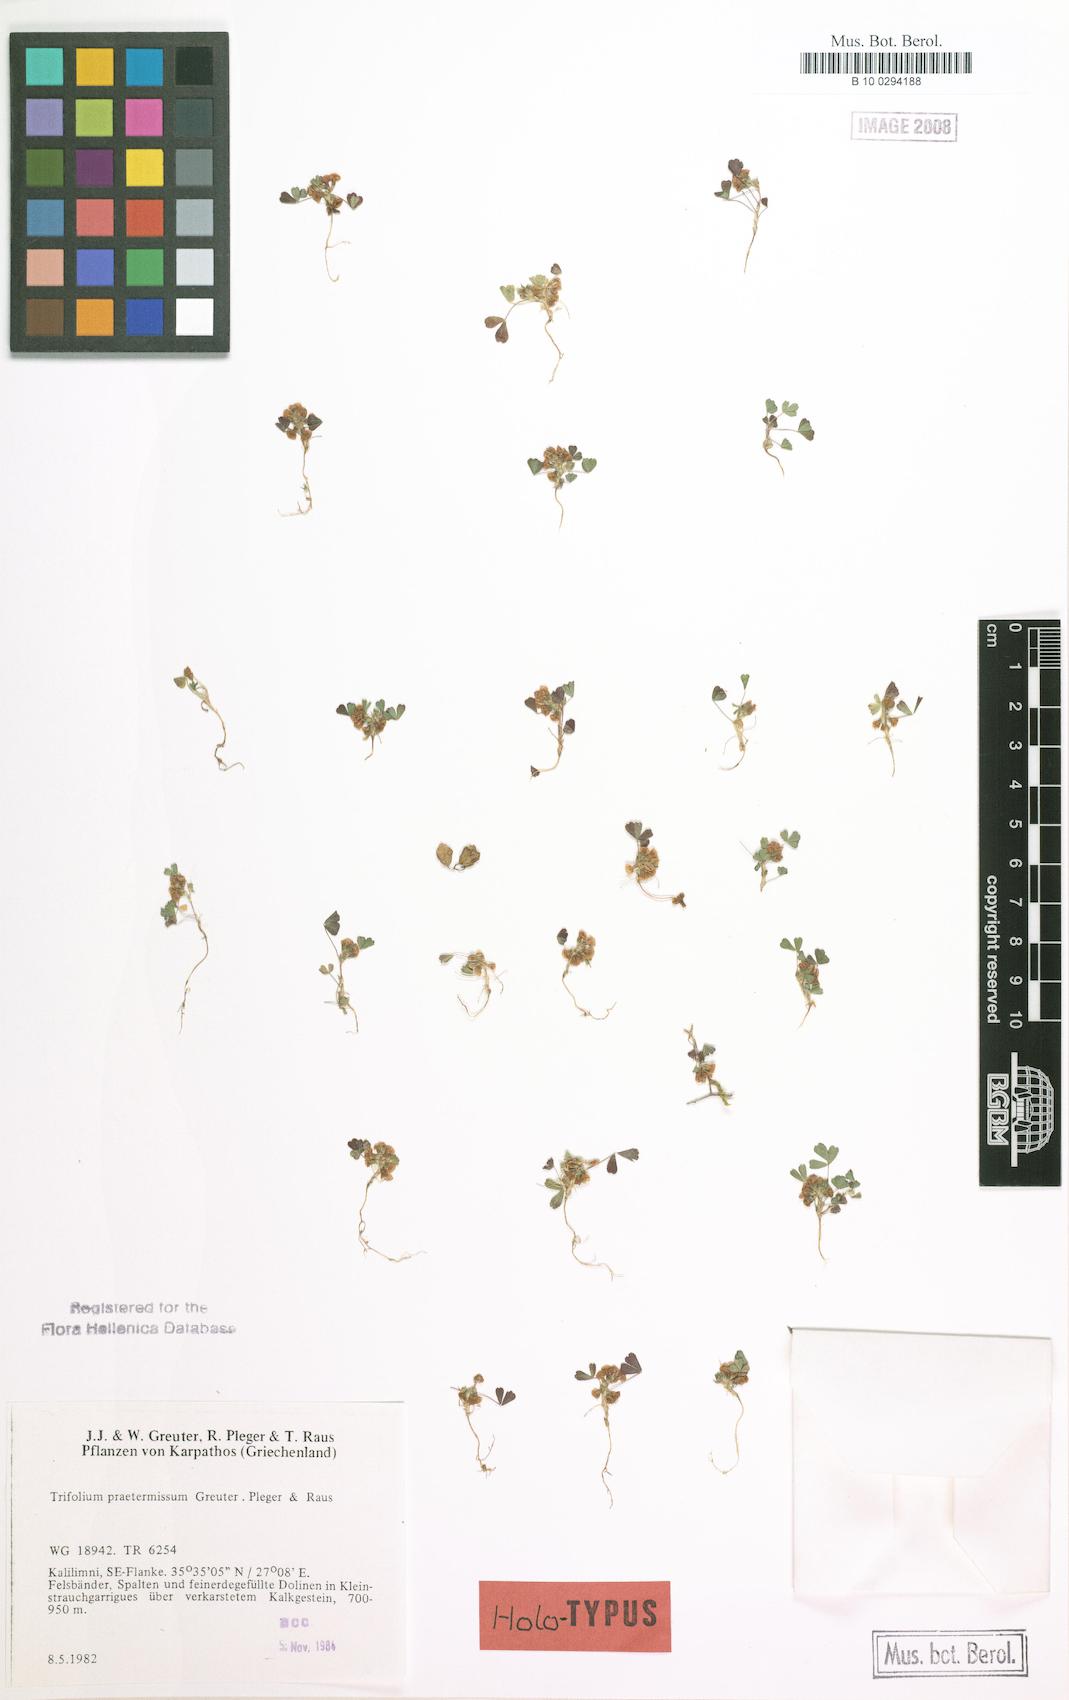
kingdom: Plantae
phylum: Tracheophyta
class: Magnoliopsida
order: Fabales
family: Fabaceae
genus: Trifolium
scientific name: Trifolium praetermissum
